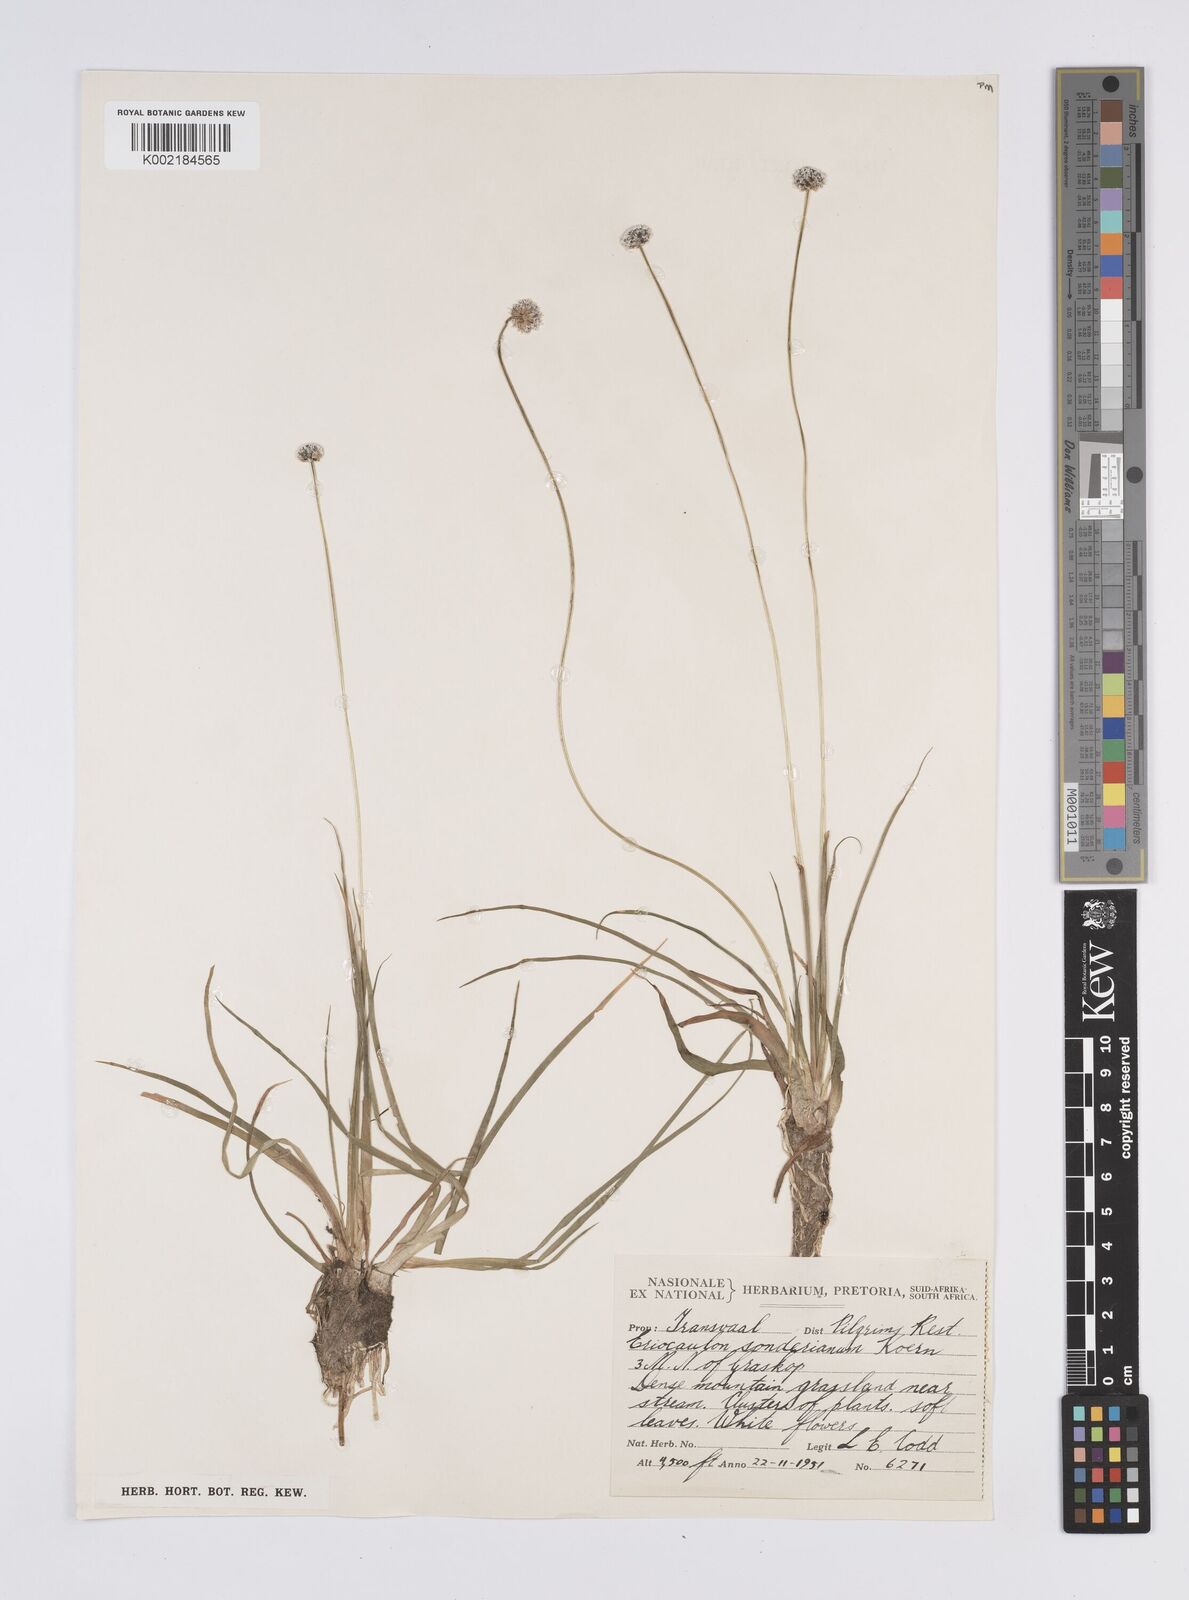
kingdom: Plantae
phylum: Tracheophyta
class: Liliopsida
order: Poales
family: Eriocaulaceae
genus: Eriocaulon
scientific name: Eriocaulon sonderianum
